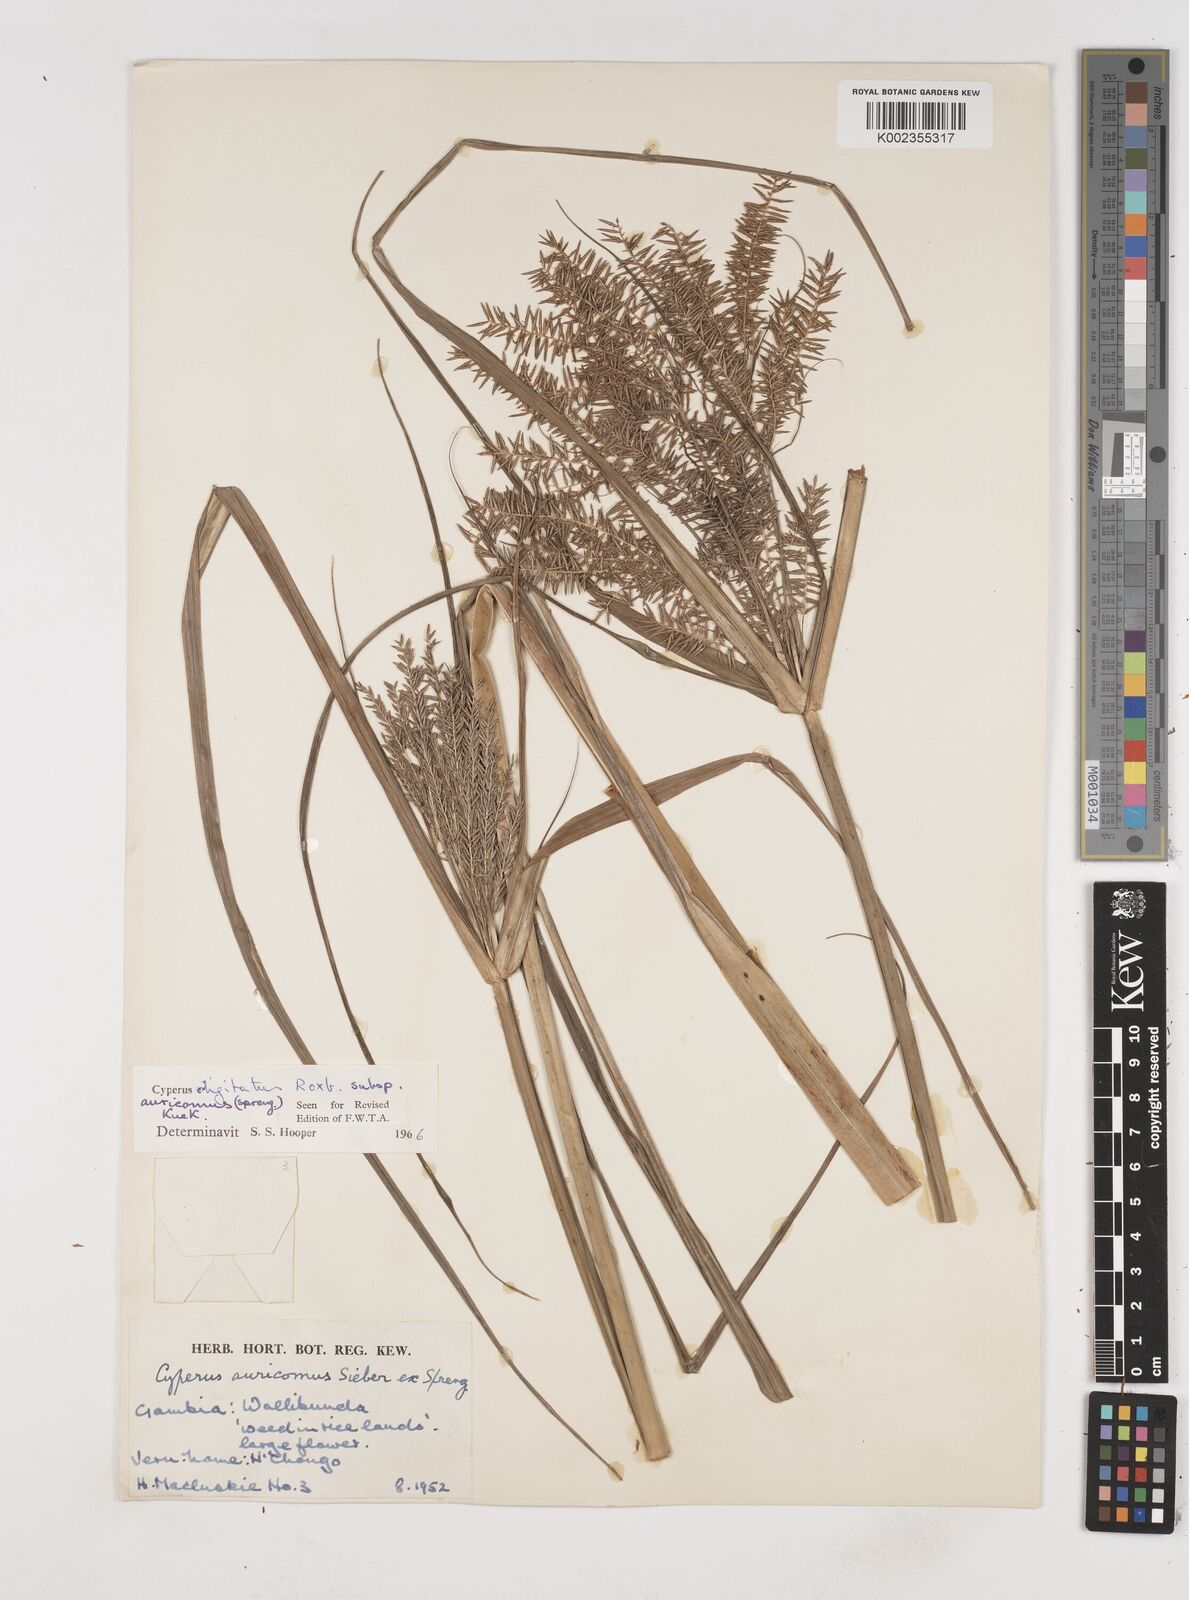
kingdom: Plantae
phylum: Tracheophyta
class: Liliopsida
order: Poales
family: Cyperaceae
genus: Cyperus
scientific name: Cyperus digitatus
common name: Finger flatsedge
